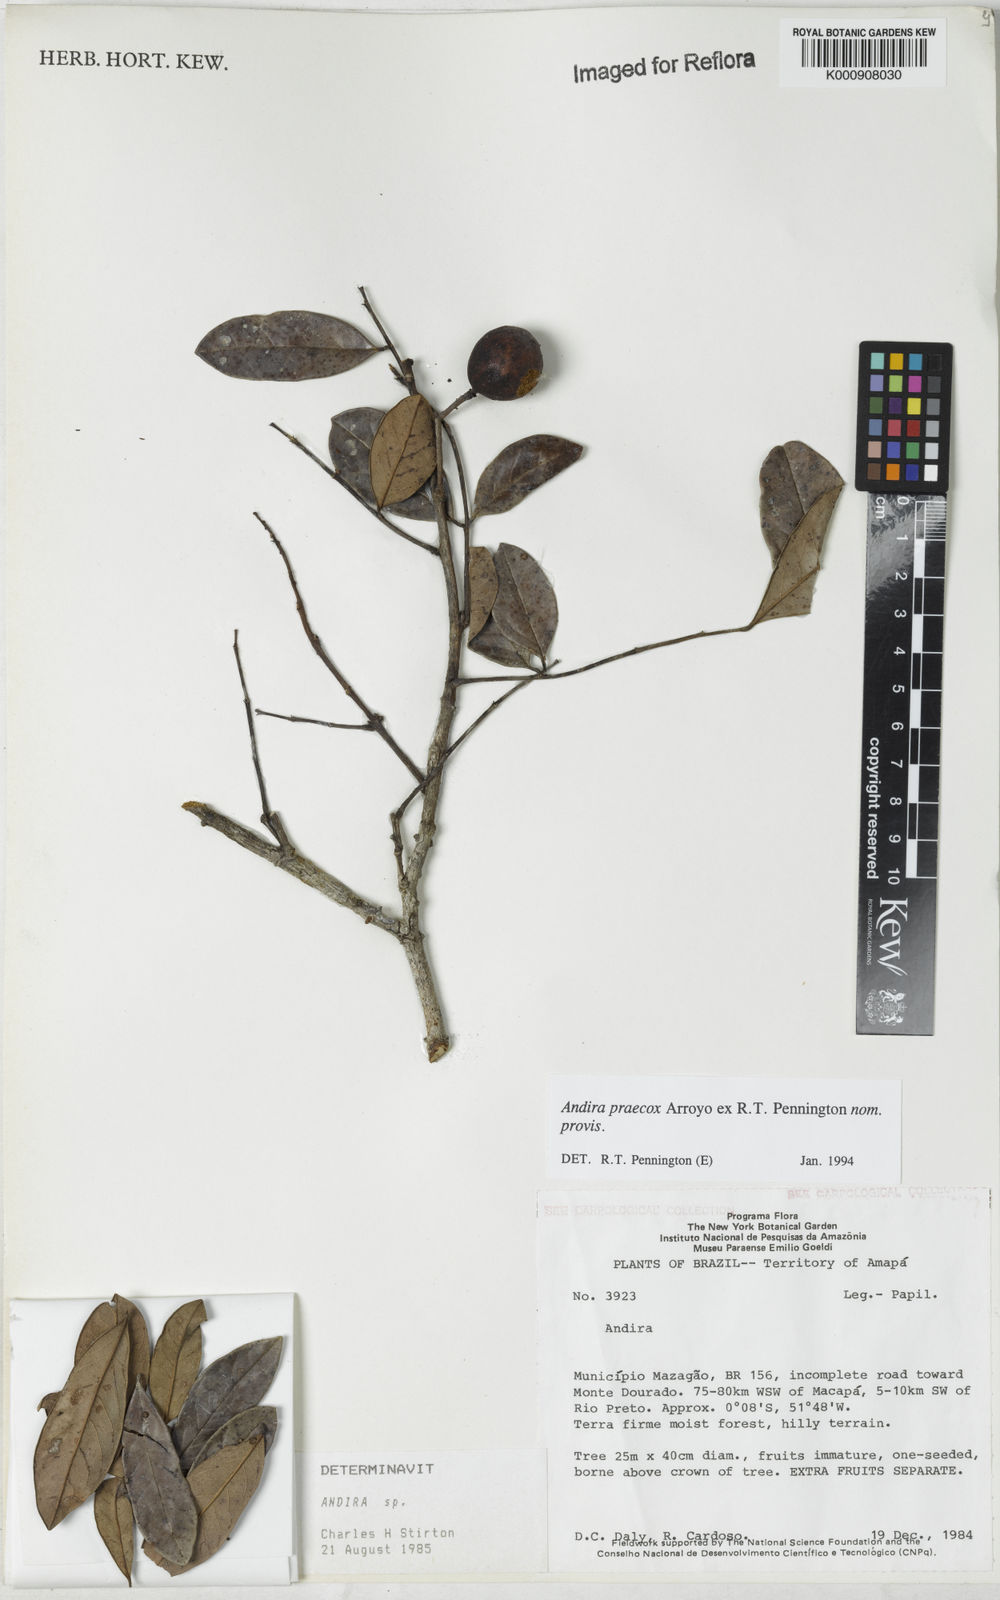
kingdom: Plantae
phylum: Tracheophyta
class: Magnoliopsida
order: Fabales
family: Fabaceae
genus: Andira
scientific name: Andira praecox
